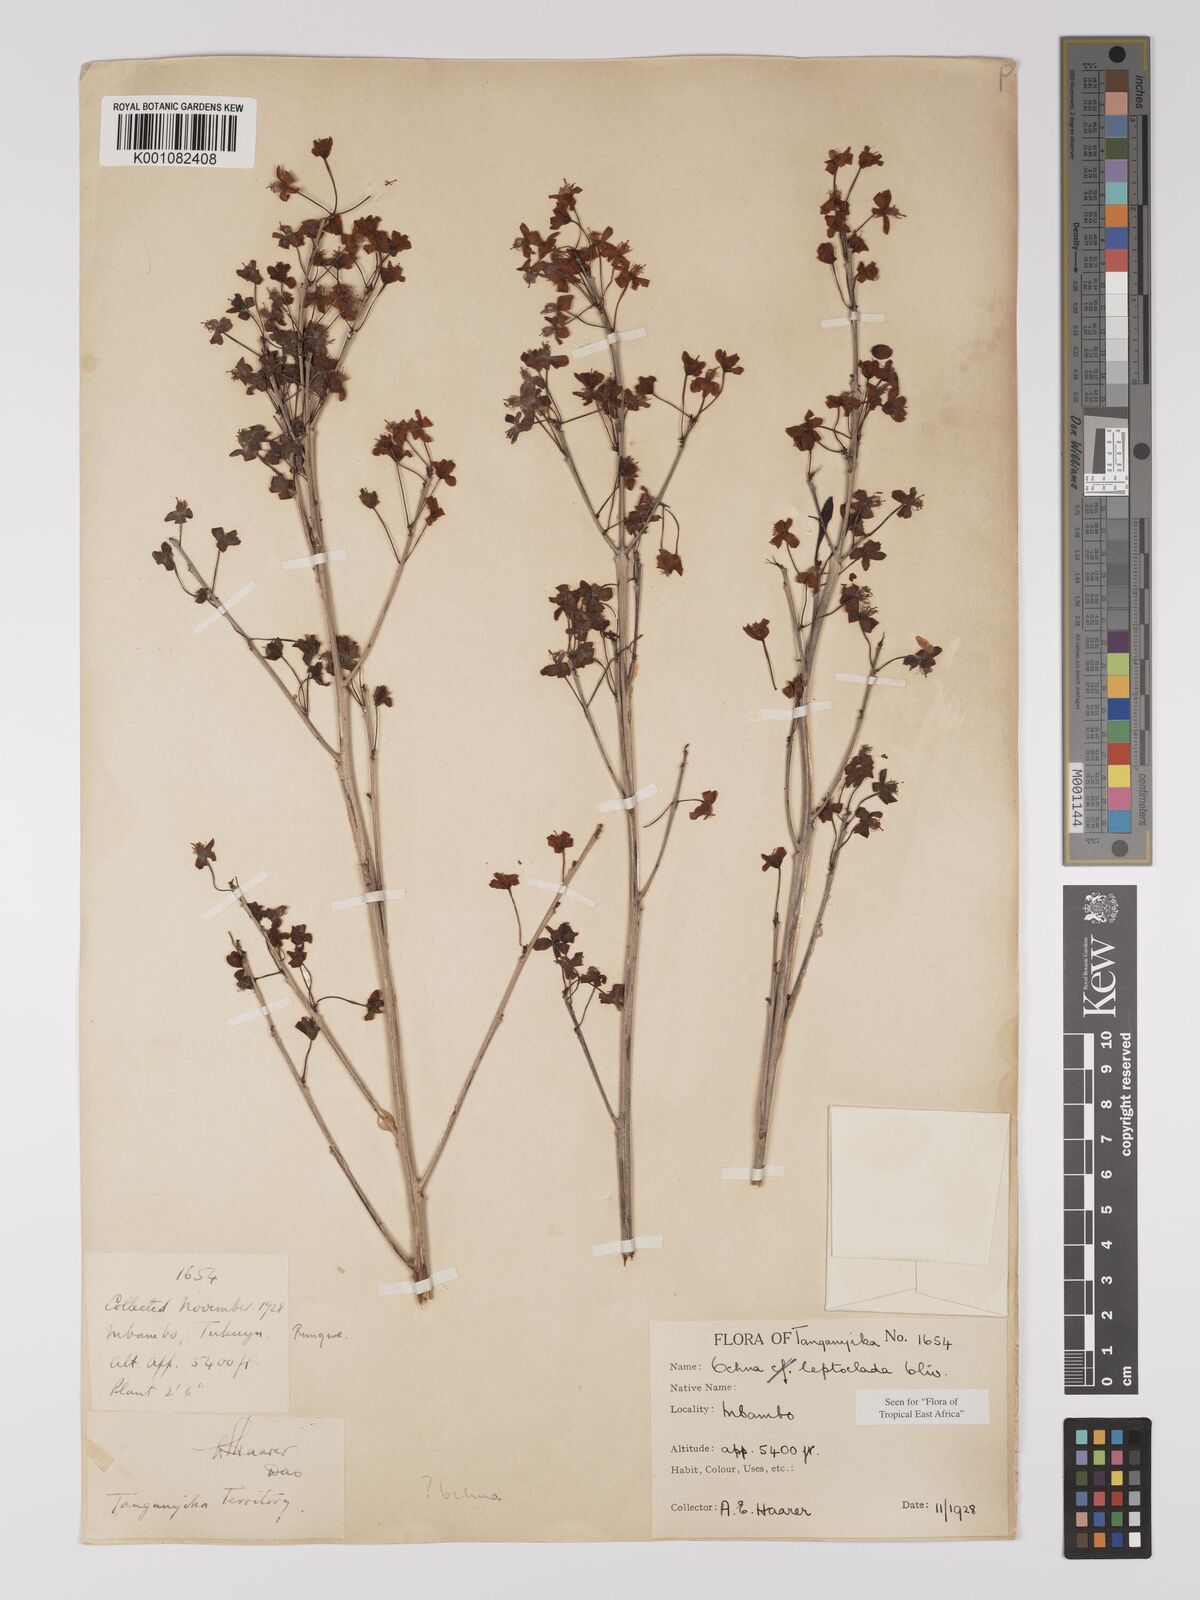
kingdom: Plantae
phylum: Tracheophyta
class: Magnoliopsida
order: Malpighiales
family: Ochnaceae
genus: Ochna
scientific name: Ochna leptoclada
